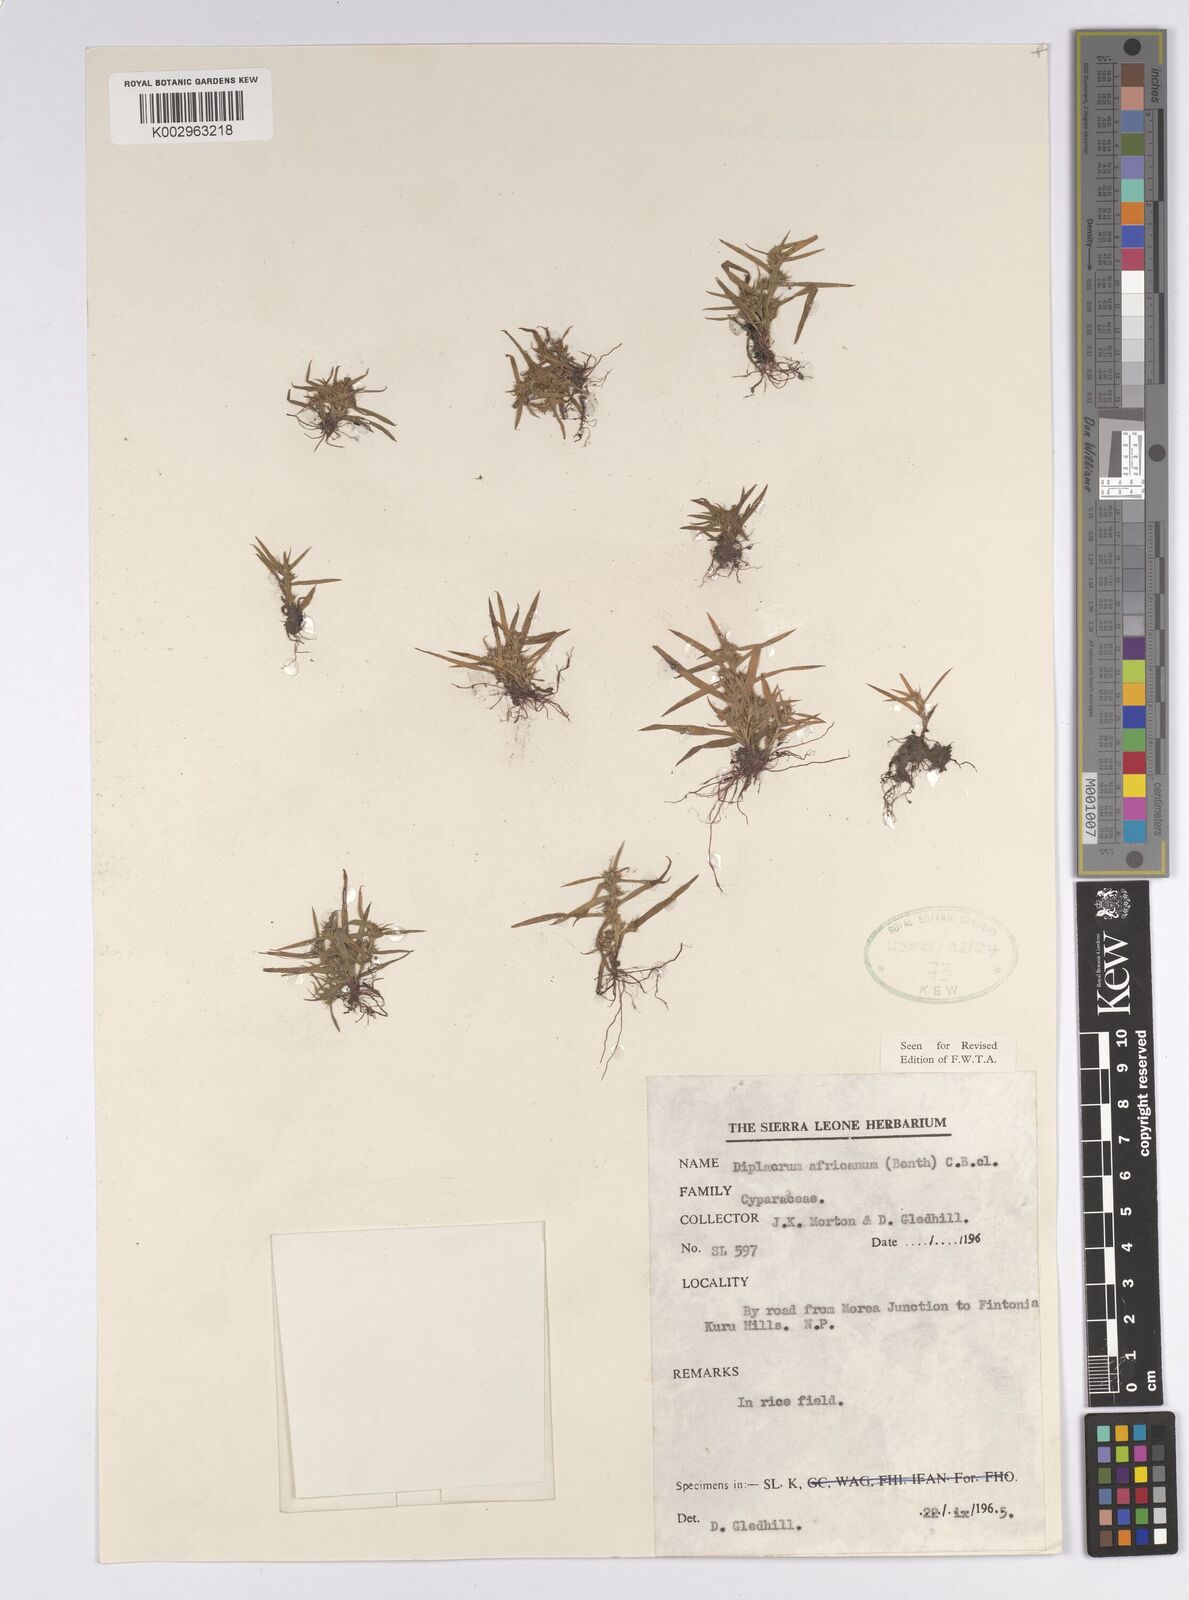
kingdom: Plantae
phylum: Tracheophyta
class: Liliopsida
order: Poales
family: Cyperaceae
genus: Diplacrum
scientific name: Diplacrum africanum
